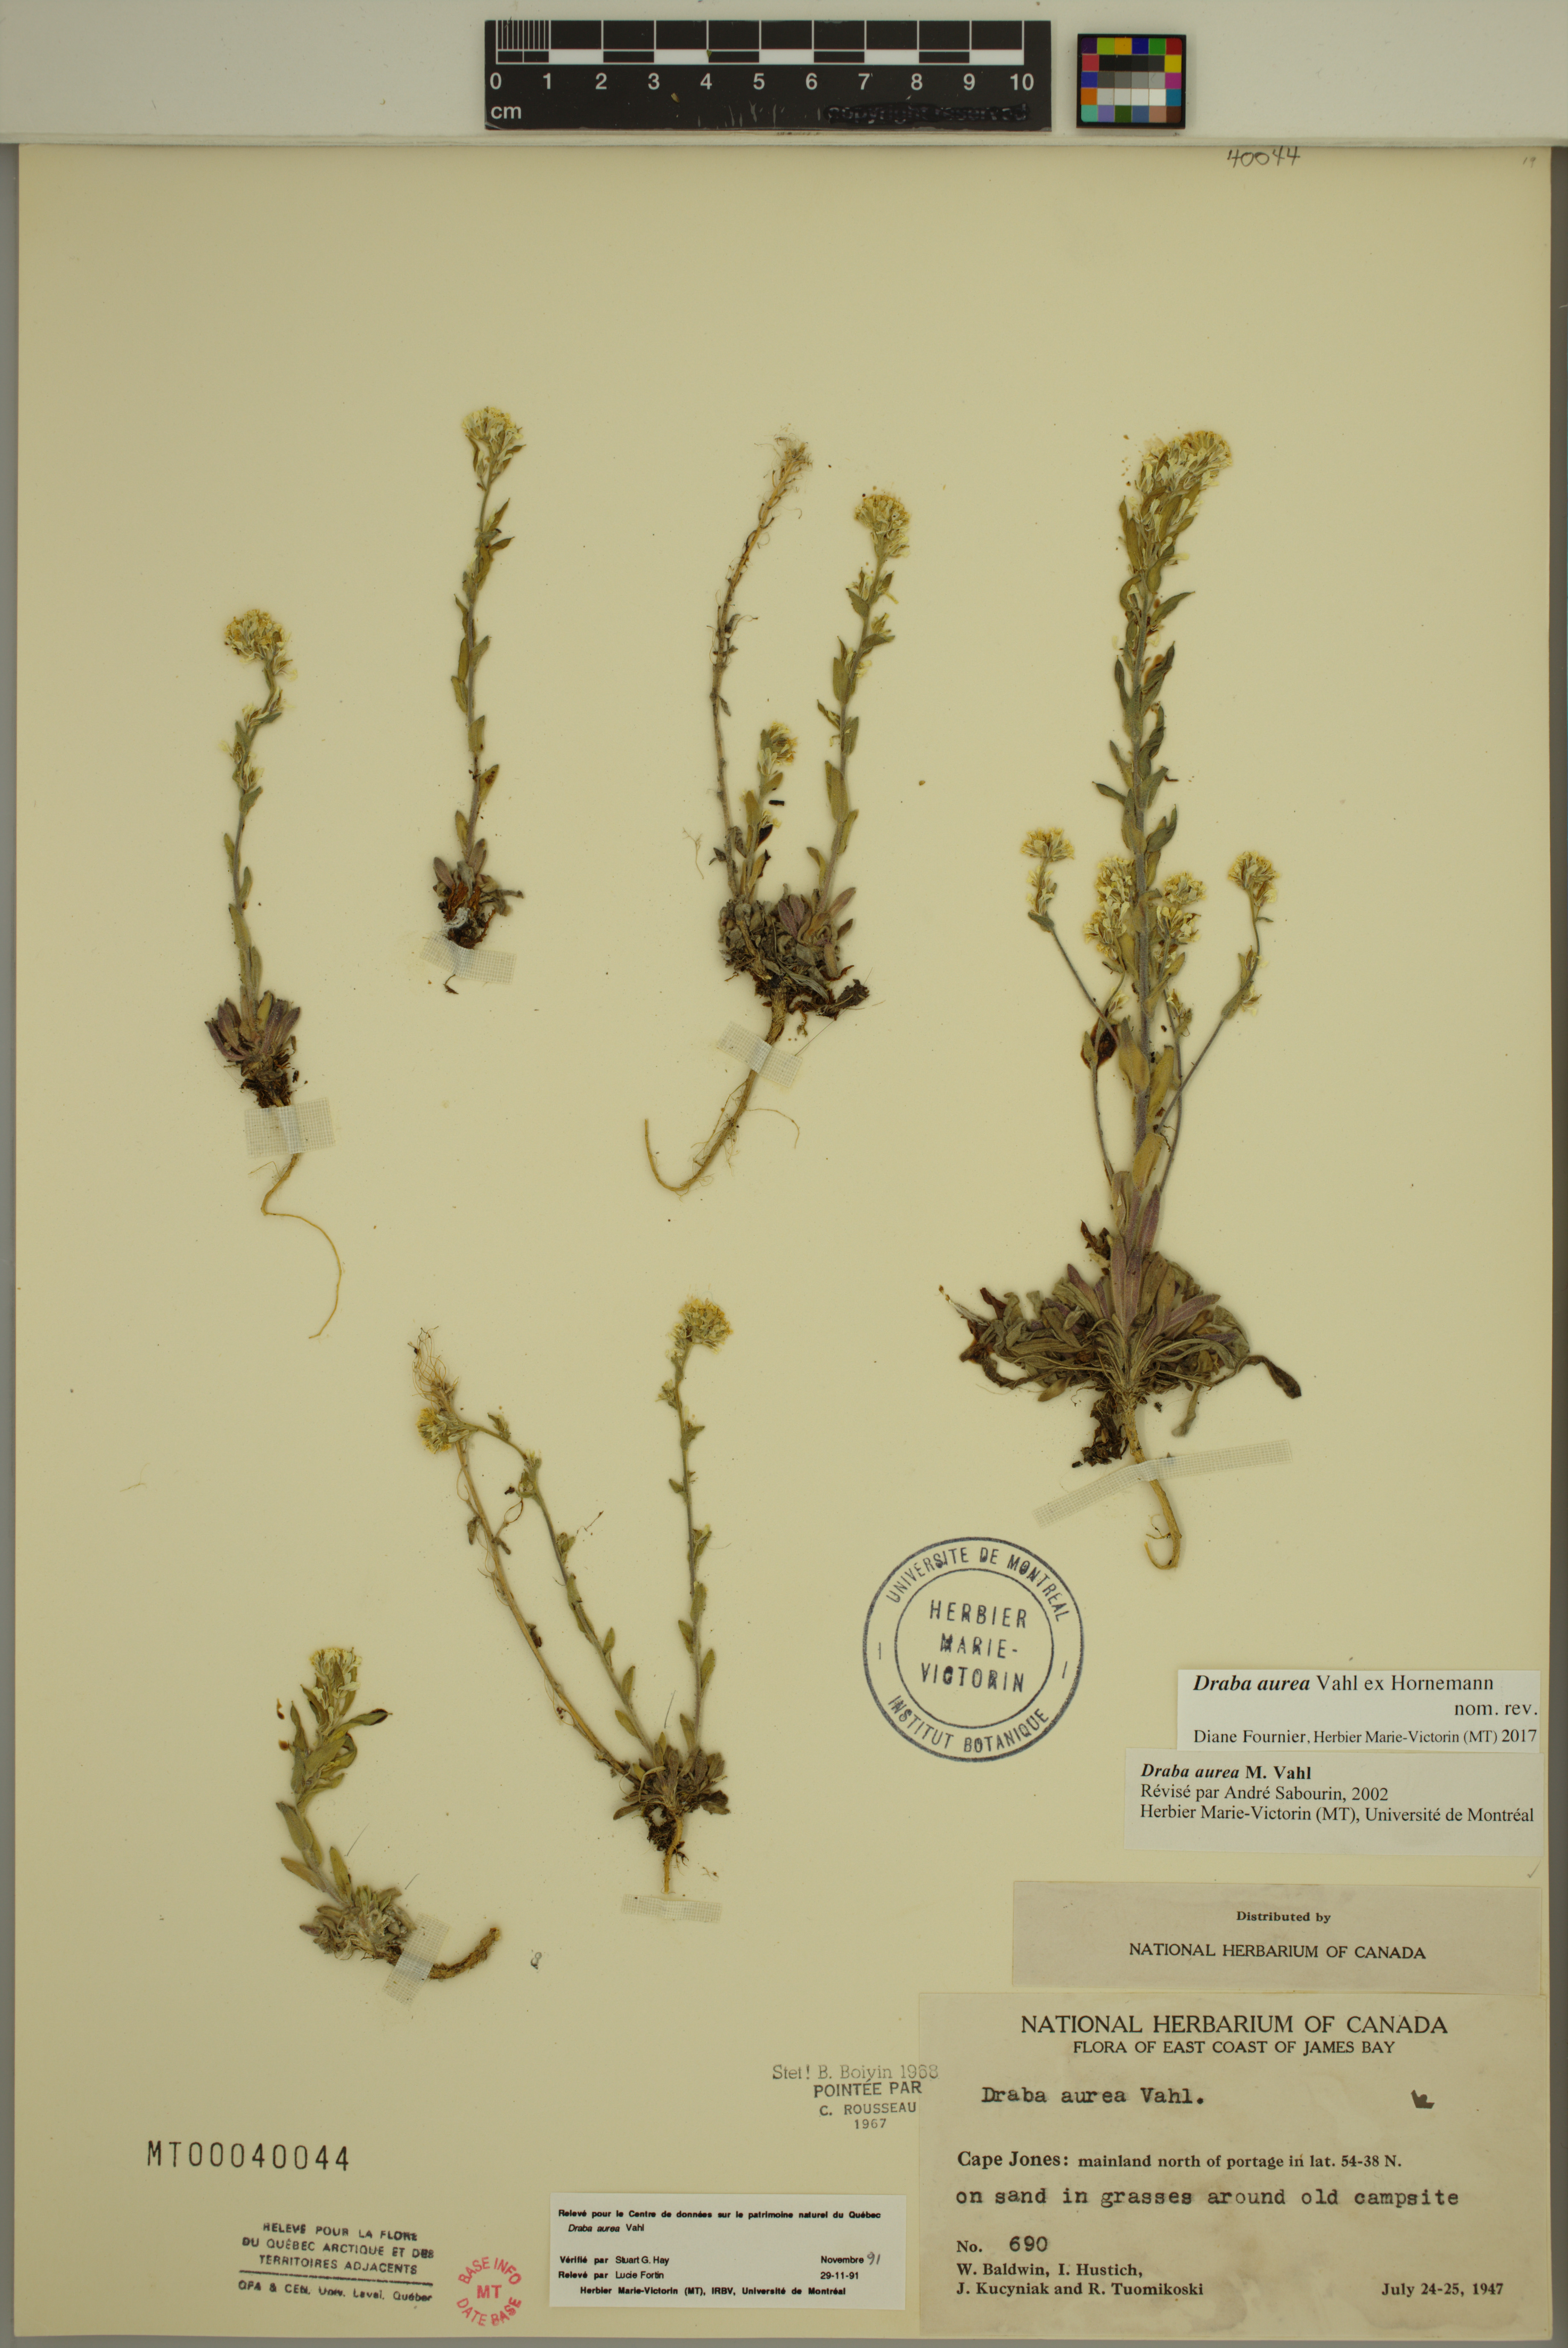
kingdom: Plantae
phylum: Tracheophyta
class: Magnoliopsida
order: Brassicales
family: Brassicaceae
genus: Draba
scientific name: Draba aurea
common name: Golden draba
